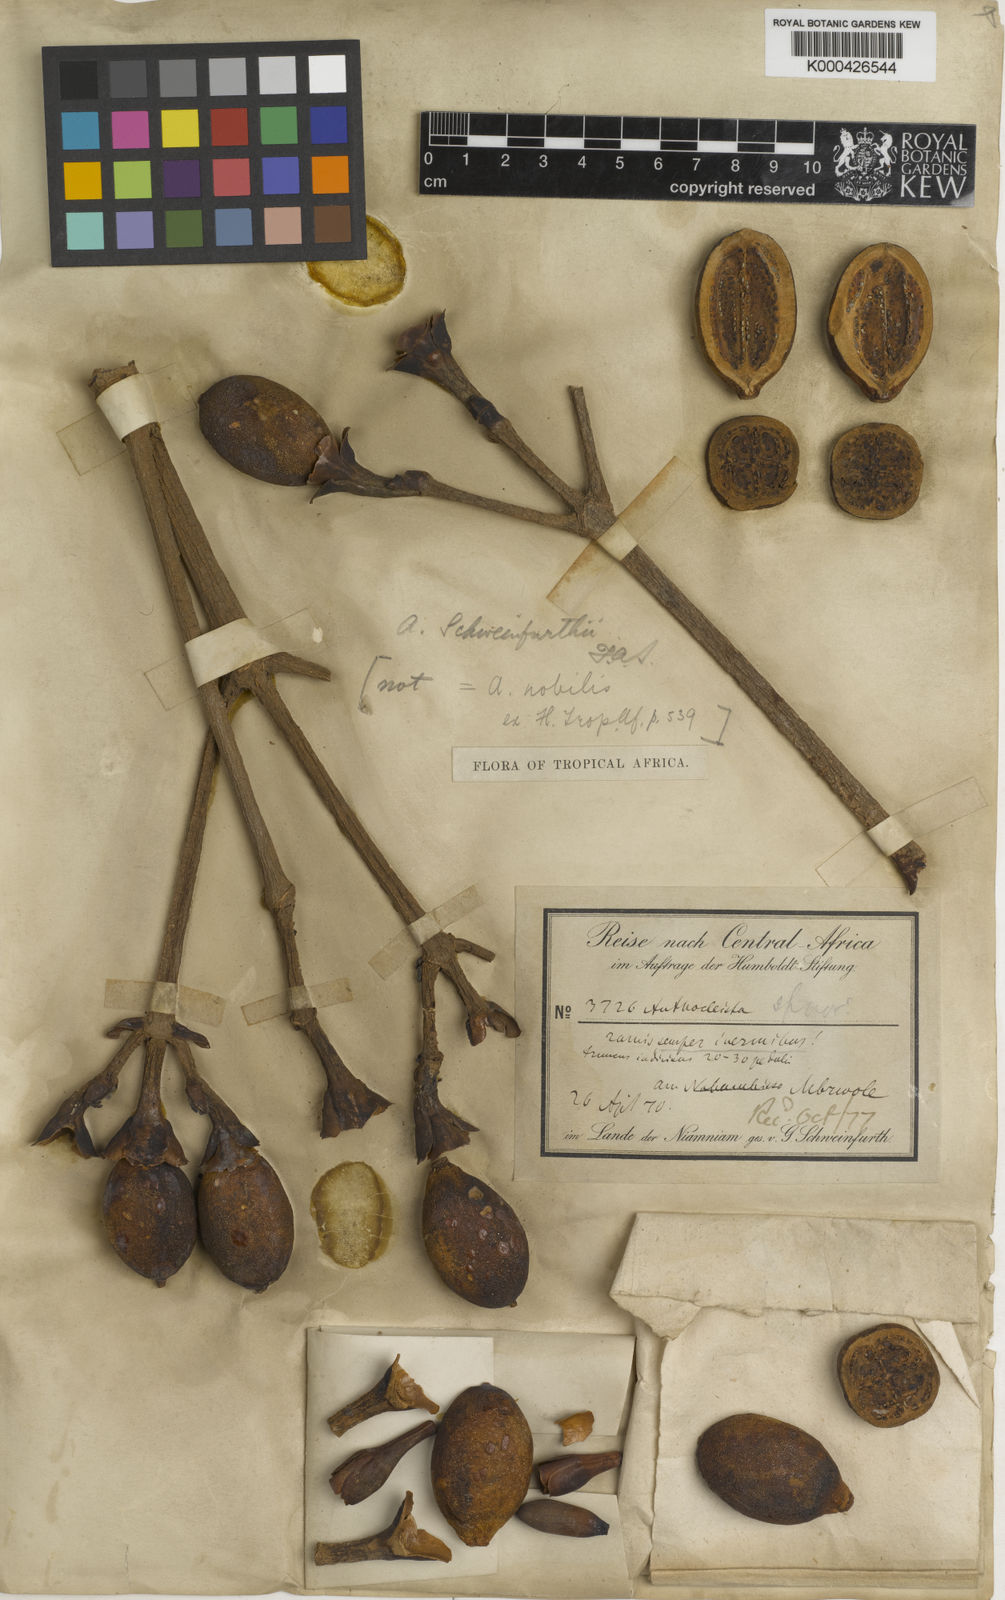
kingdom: Plantae
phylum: Tracheophyta
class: Magnoliopsida
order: Gentianales
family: Gentianaceae
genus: Anthocleista
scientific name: Anthocleista schweinfurthii
